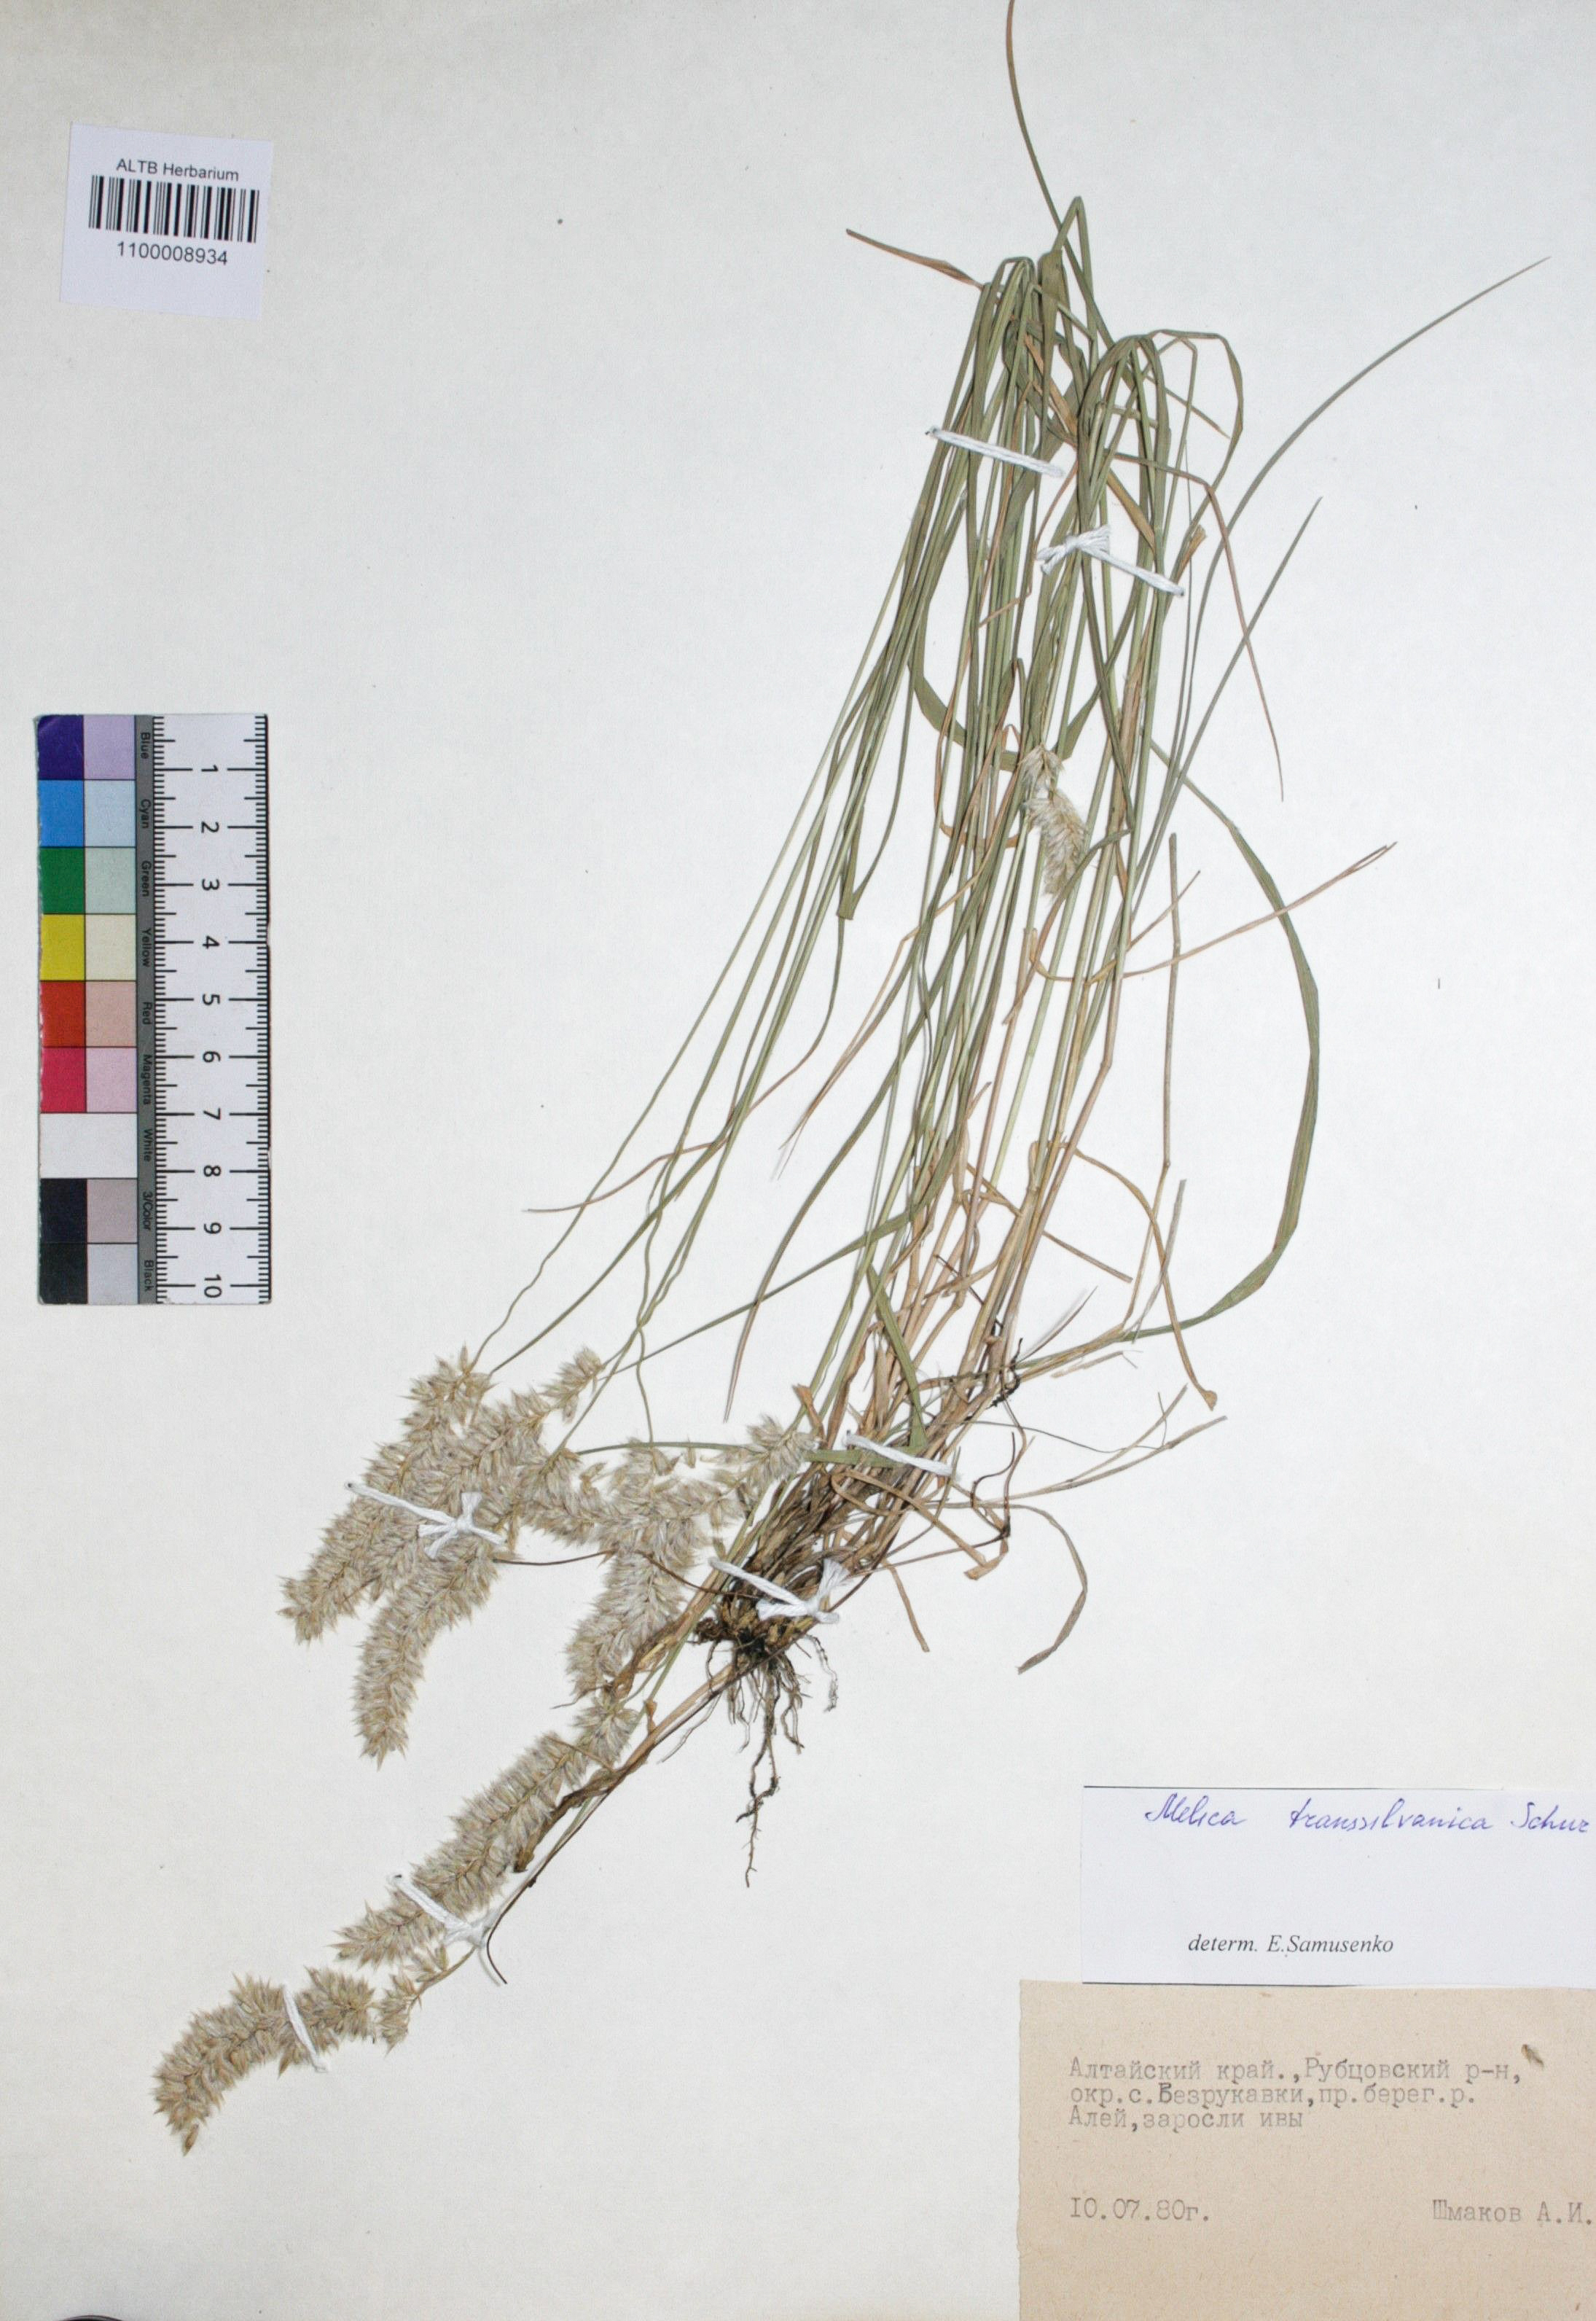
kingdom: Plantae
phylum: Tracheophyta
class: Liliopsida
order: Poales
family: Poaceae
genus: Melica
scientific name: Melica transsilvanica
